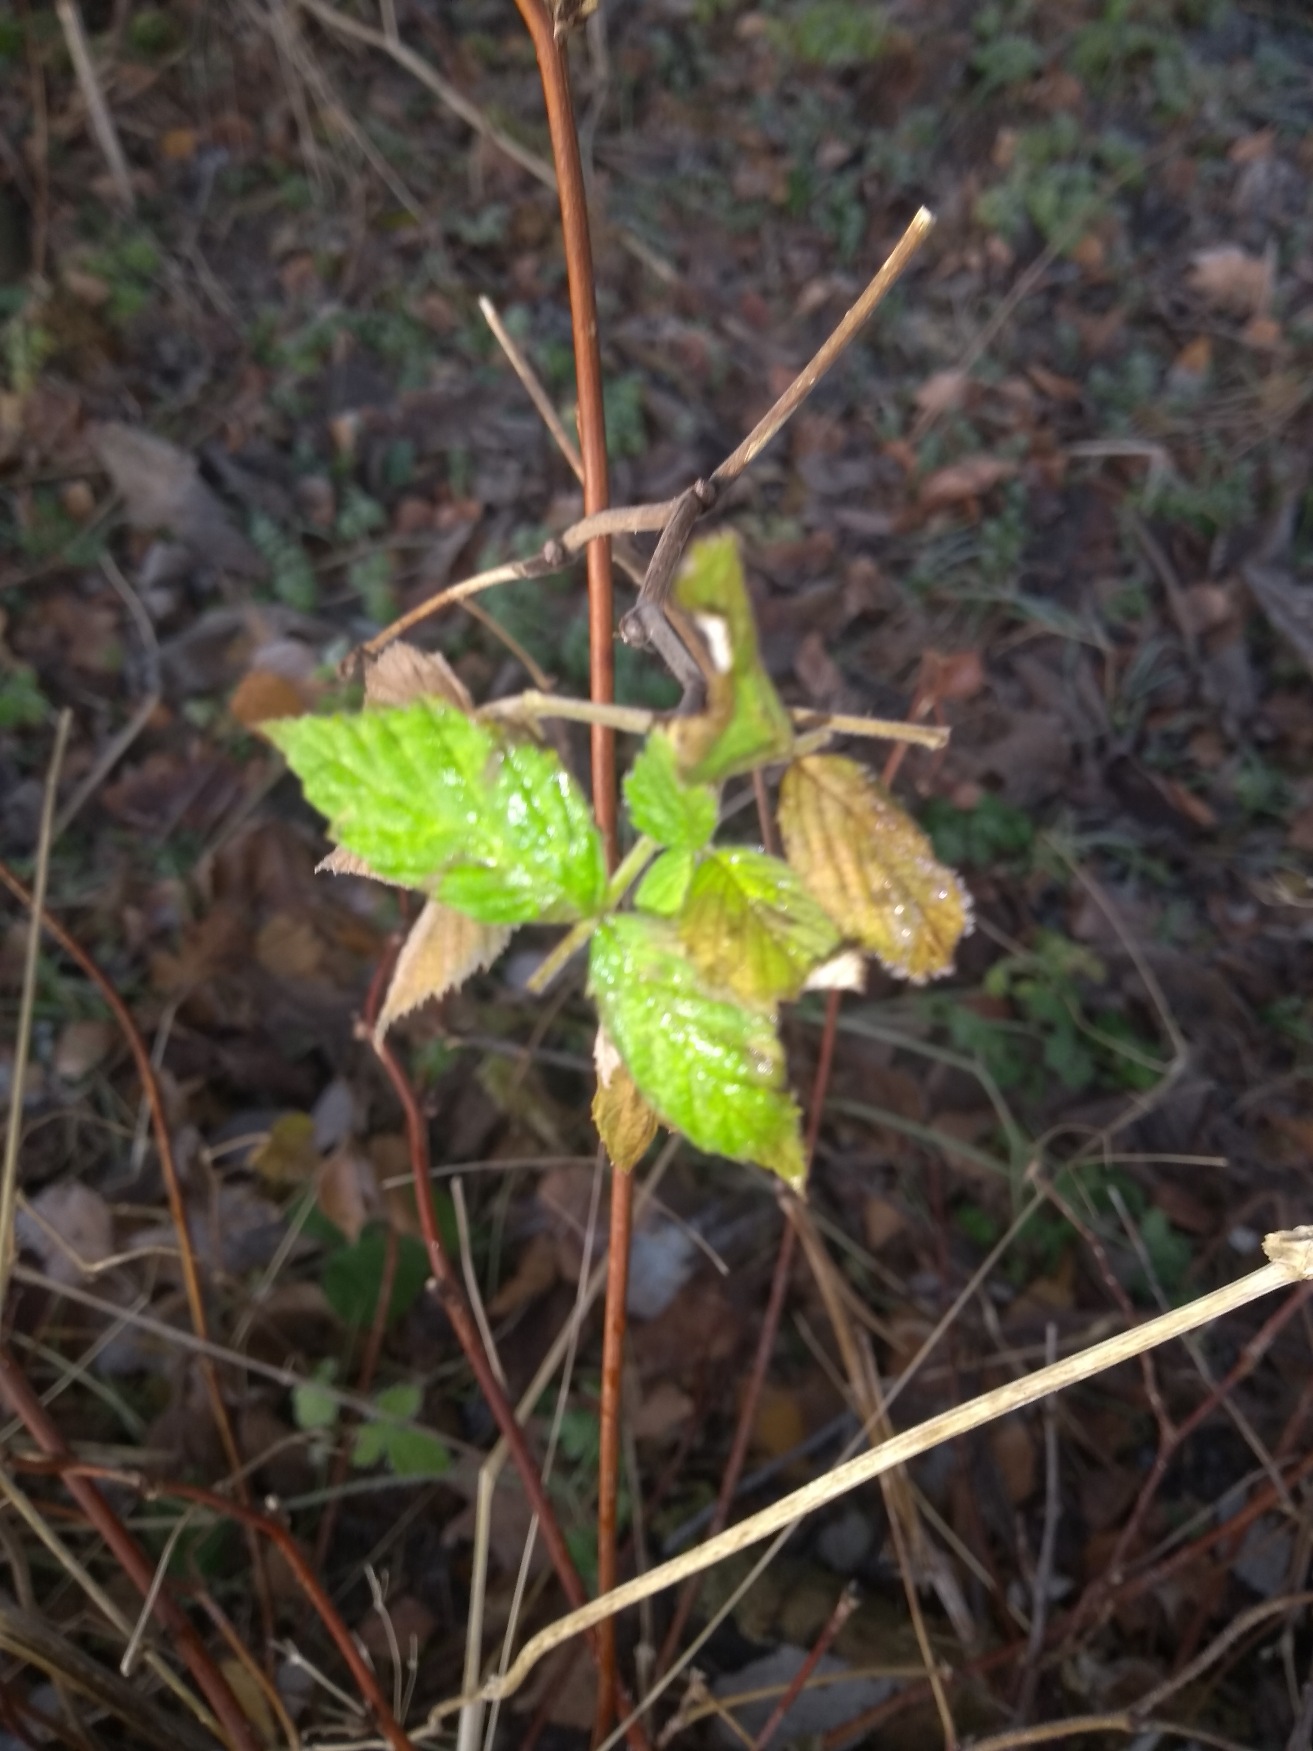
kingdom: Plantae
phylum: Tracheophyta
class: Magnoliopsida
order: Rosales
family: Rosaceae
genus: Rubus
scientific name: Rubus idaeus
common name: Hindbær
